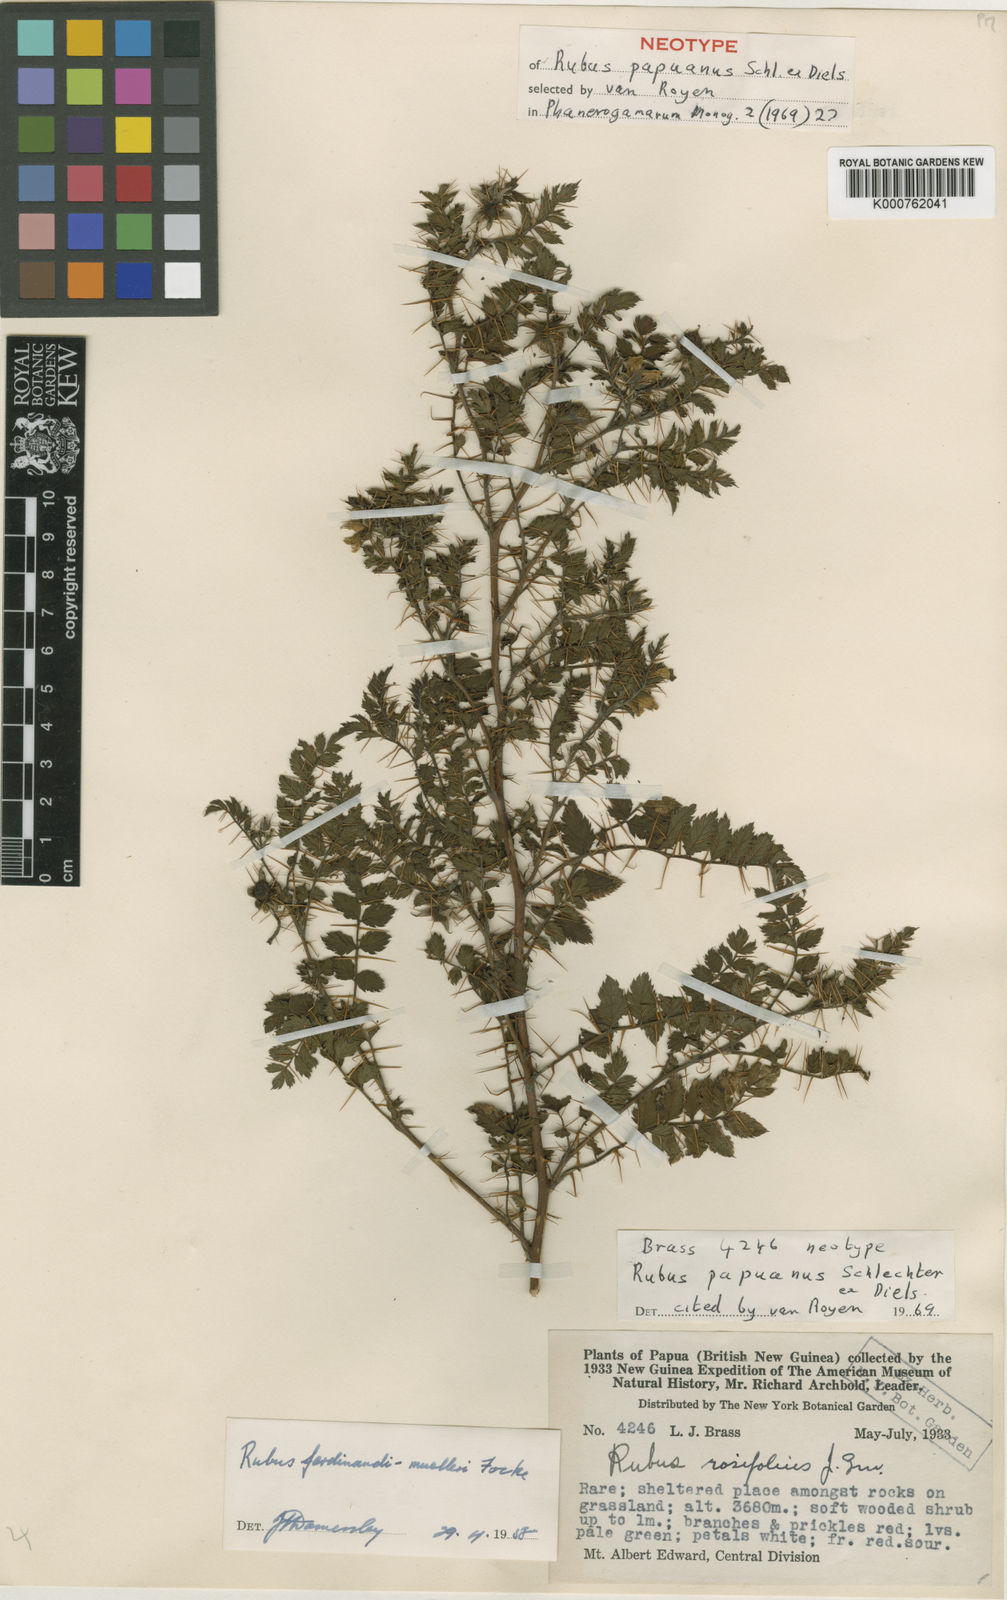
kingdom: Plantae
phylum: Tracheophyta
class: Magnoliopsida
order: Rosales
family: Rosaceae
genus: Rubus
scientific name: Rubus papuanus
